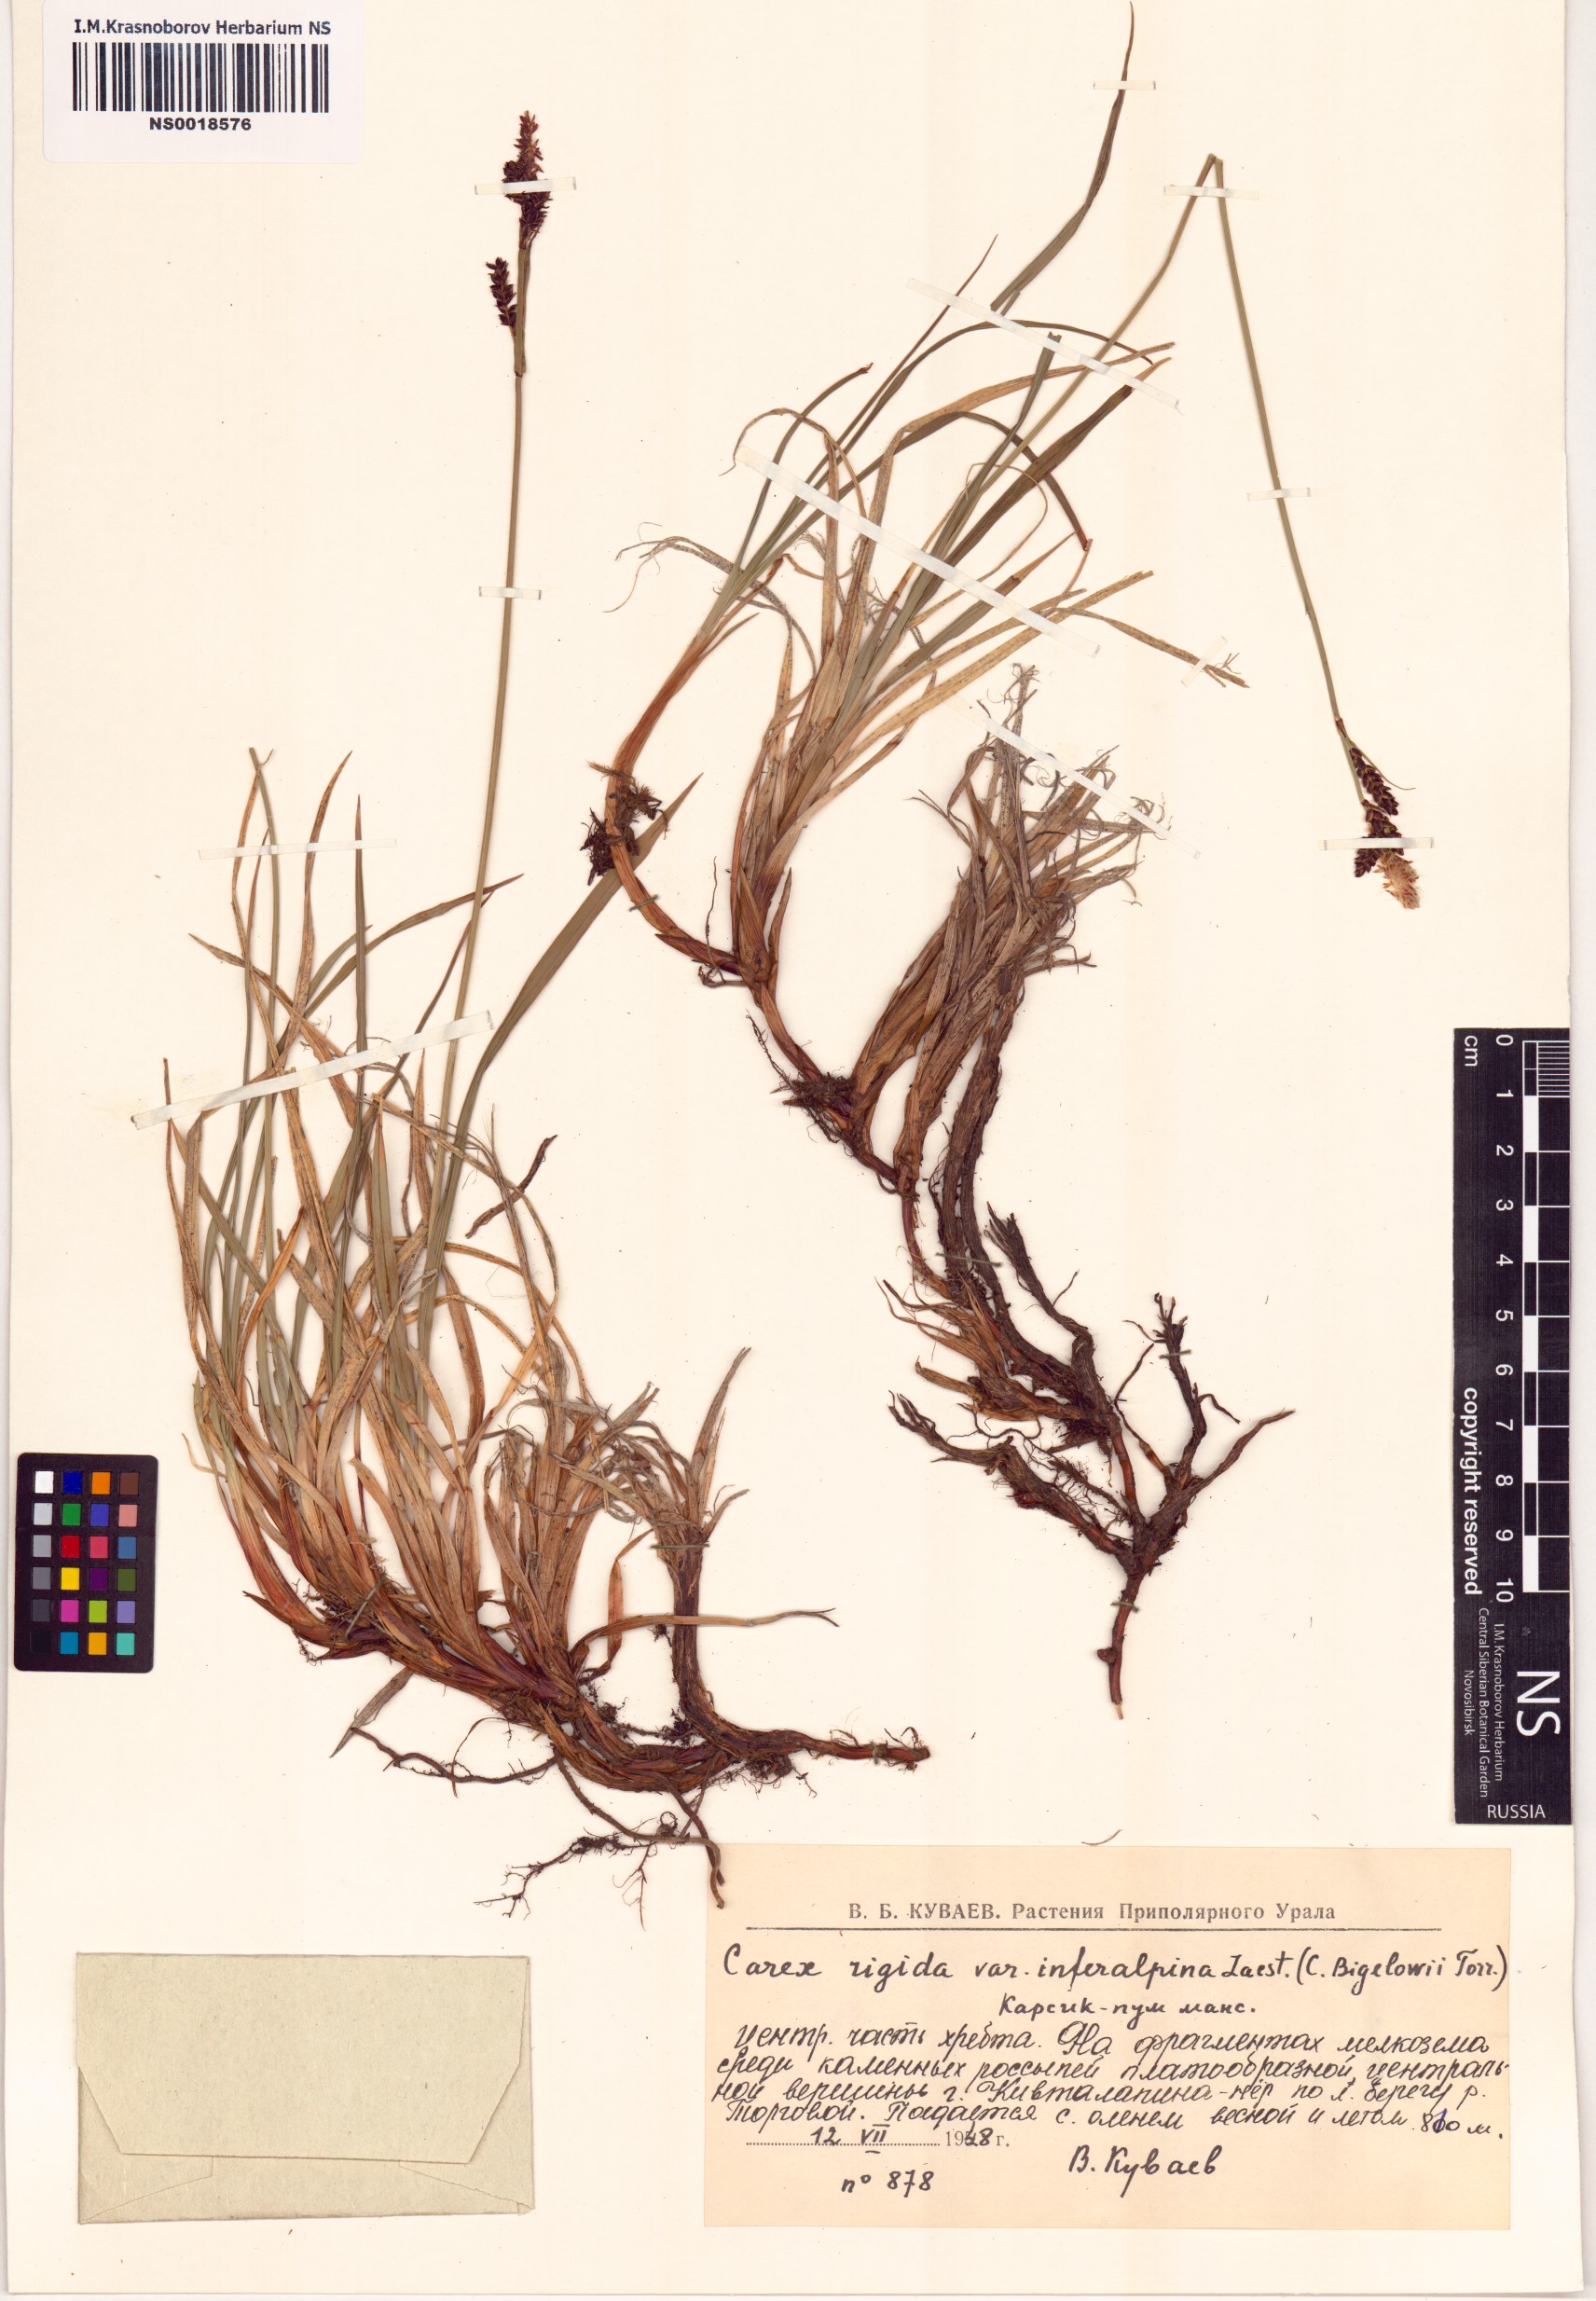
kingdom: Plantae
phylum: Tracheophyta
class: Liliopsida
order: Poales
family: Cyperaceae
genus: Carex
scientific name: Carex bigelowii
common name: Stiff sedge
